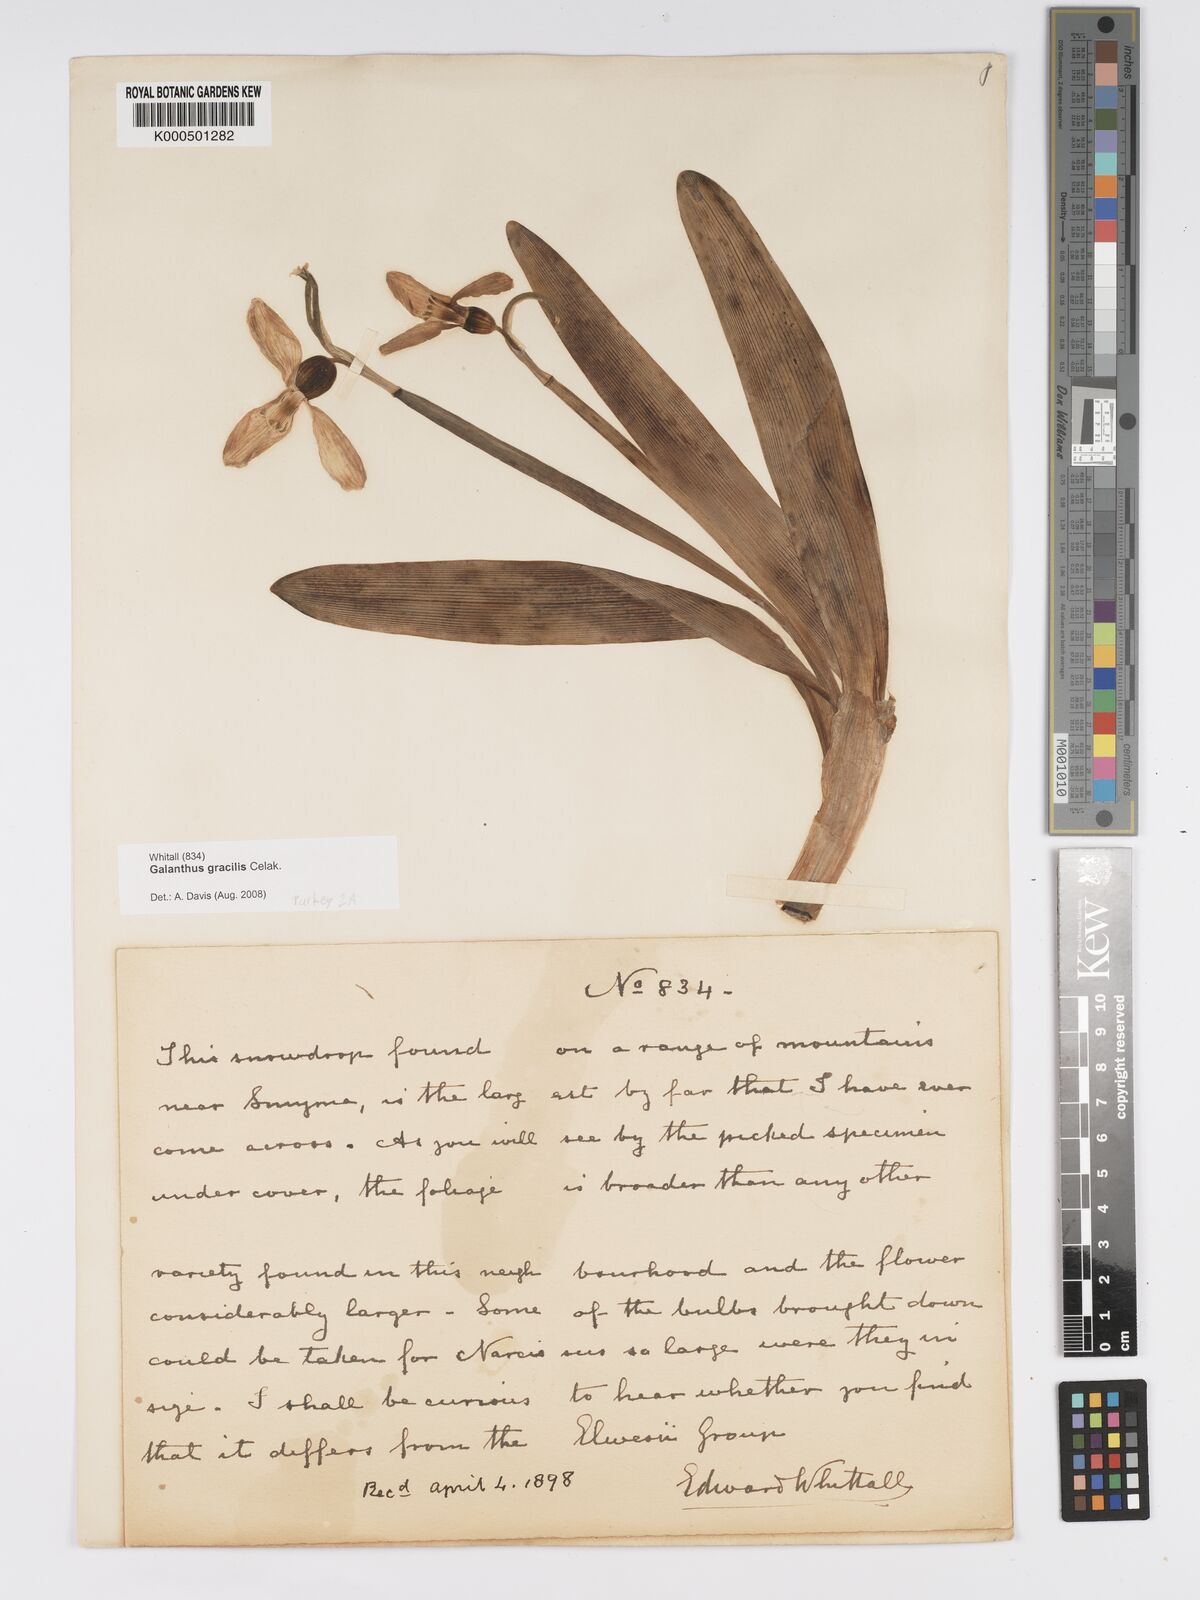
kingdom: Plantae
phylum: Tracheophyta
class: Liliopsida
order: Asparagales
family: Amaryllidaceae
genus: Galanthus
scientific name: Galanthus gracilis
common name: Snowdrop
